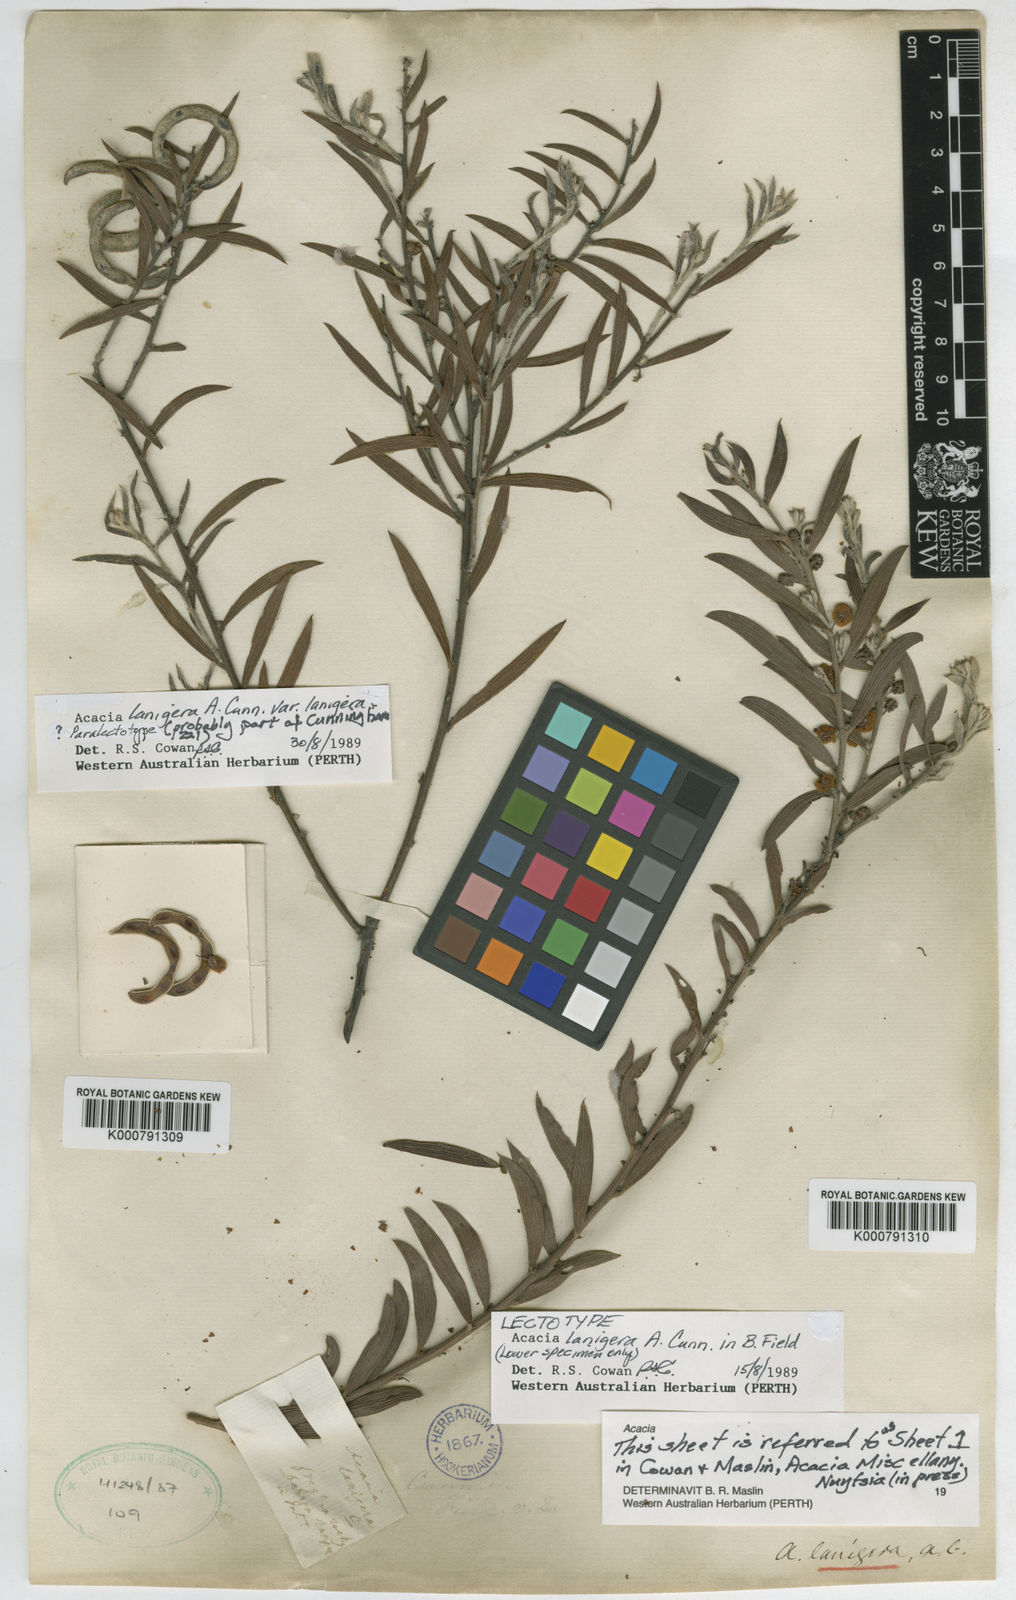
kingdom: Plantae
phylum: Tracheophyta
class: Magnoliopsida
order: Fabales
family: Fabaceae
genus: Acacia
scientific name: Acacia lanigera
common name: Hairy wattle
